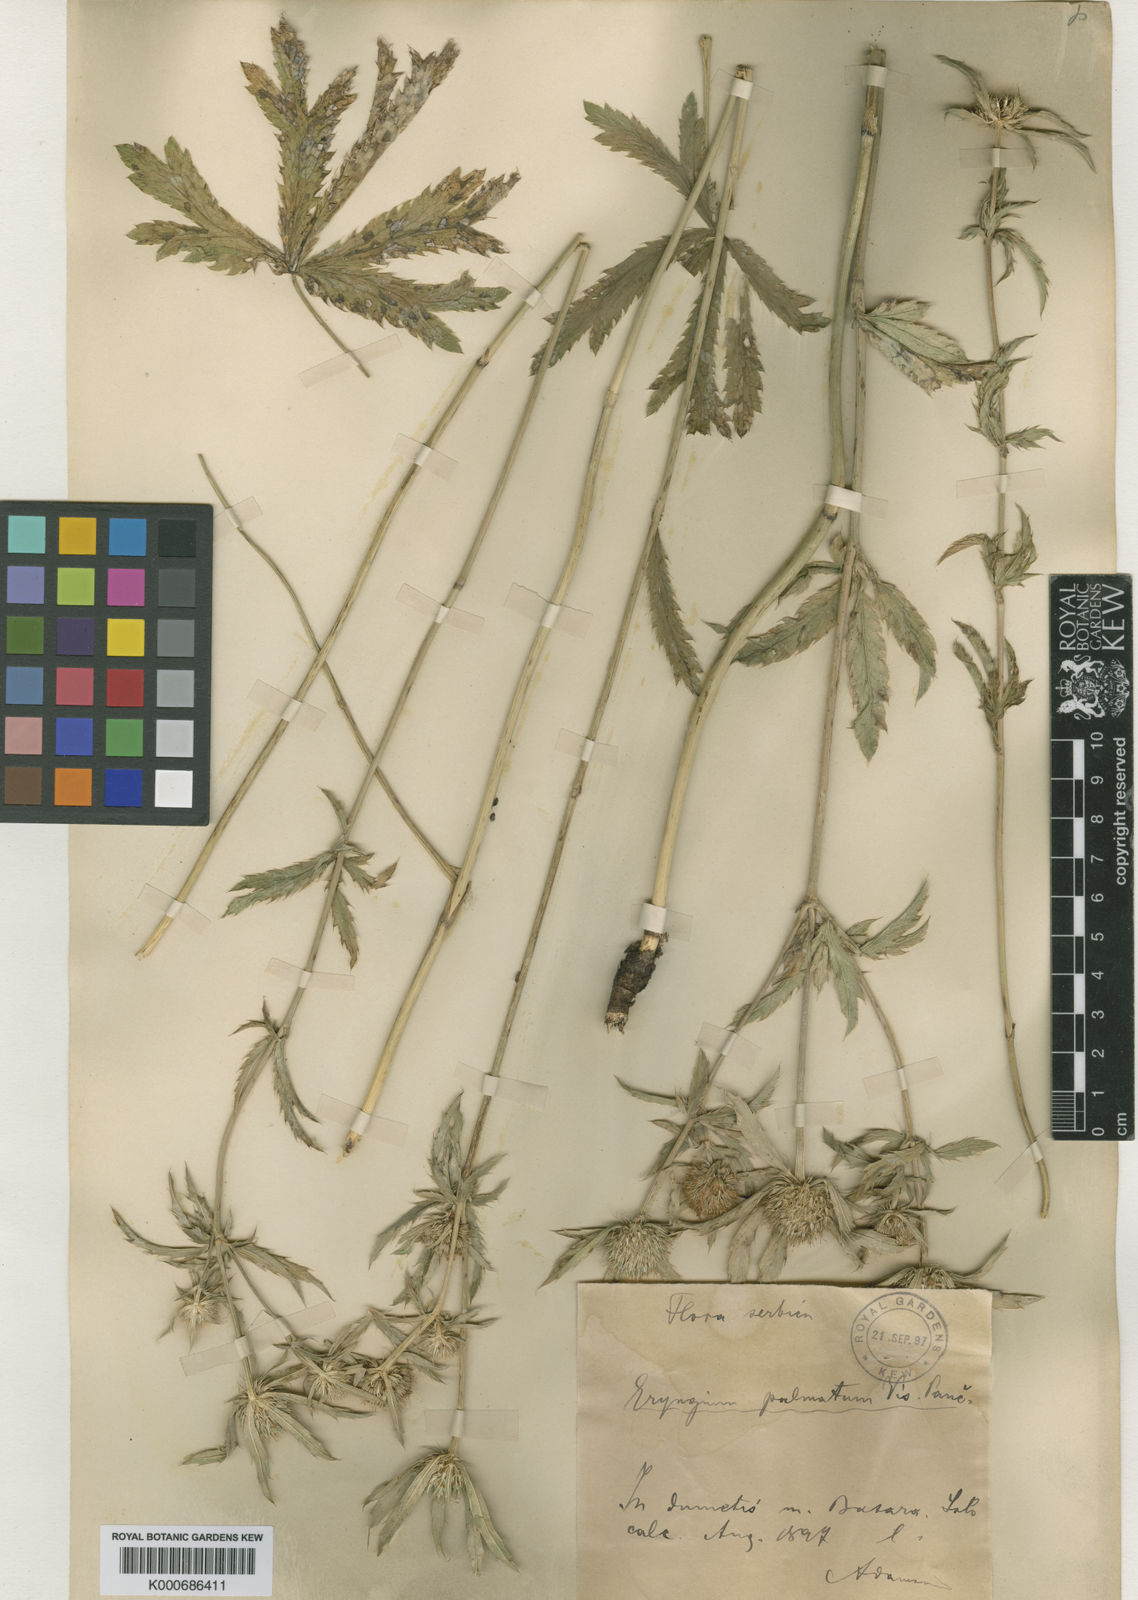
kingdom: Plantae
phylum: Tracheophyta
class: Magnoliopsida
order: Apiales
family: Apiaceae
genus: Eryngium
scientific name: Eryngium palmatum
